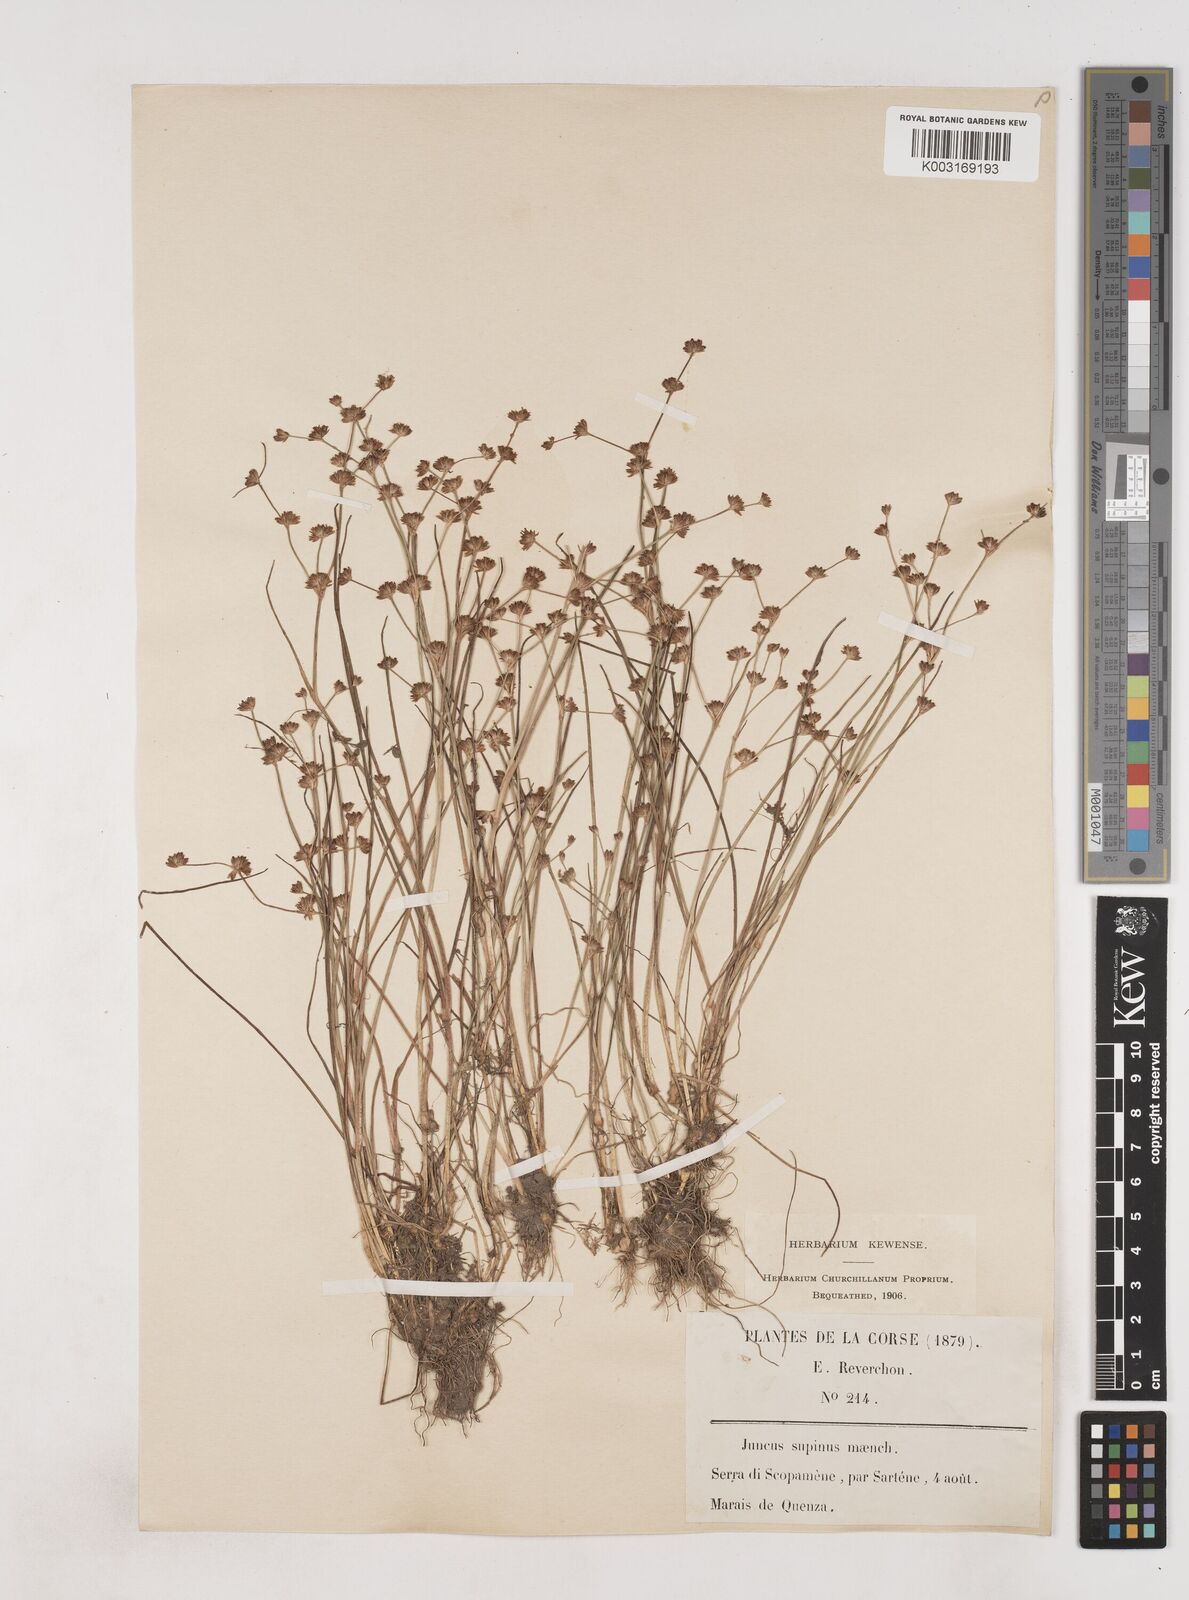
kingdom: Plantae
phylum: Tracheophyta
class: Liliopsida
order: Poales
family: Juncaceae
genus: Juncus
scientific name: Juncus bulbosus
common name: Bulbous rush
